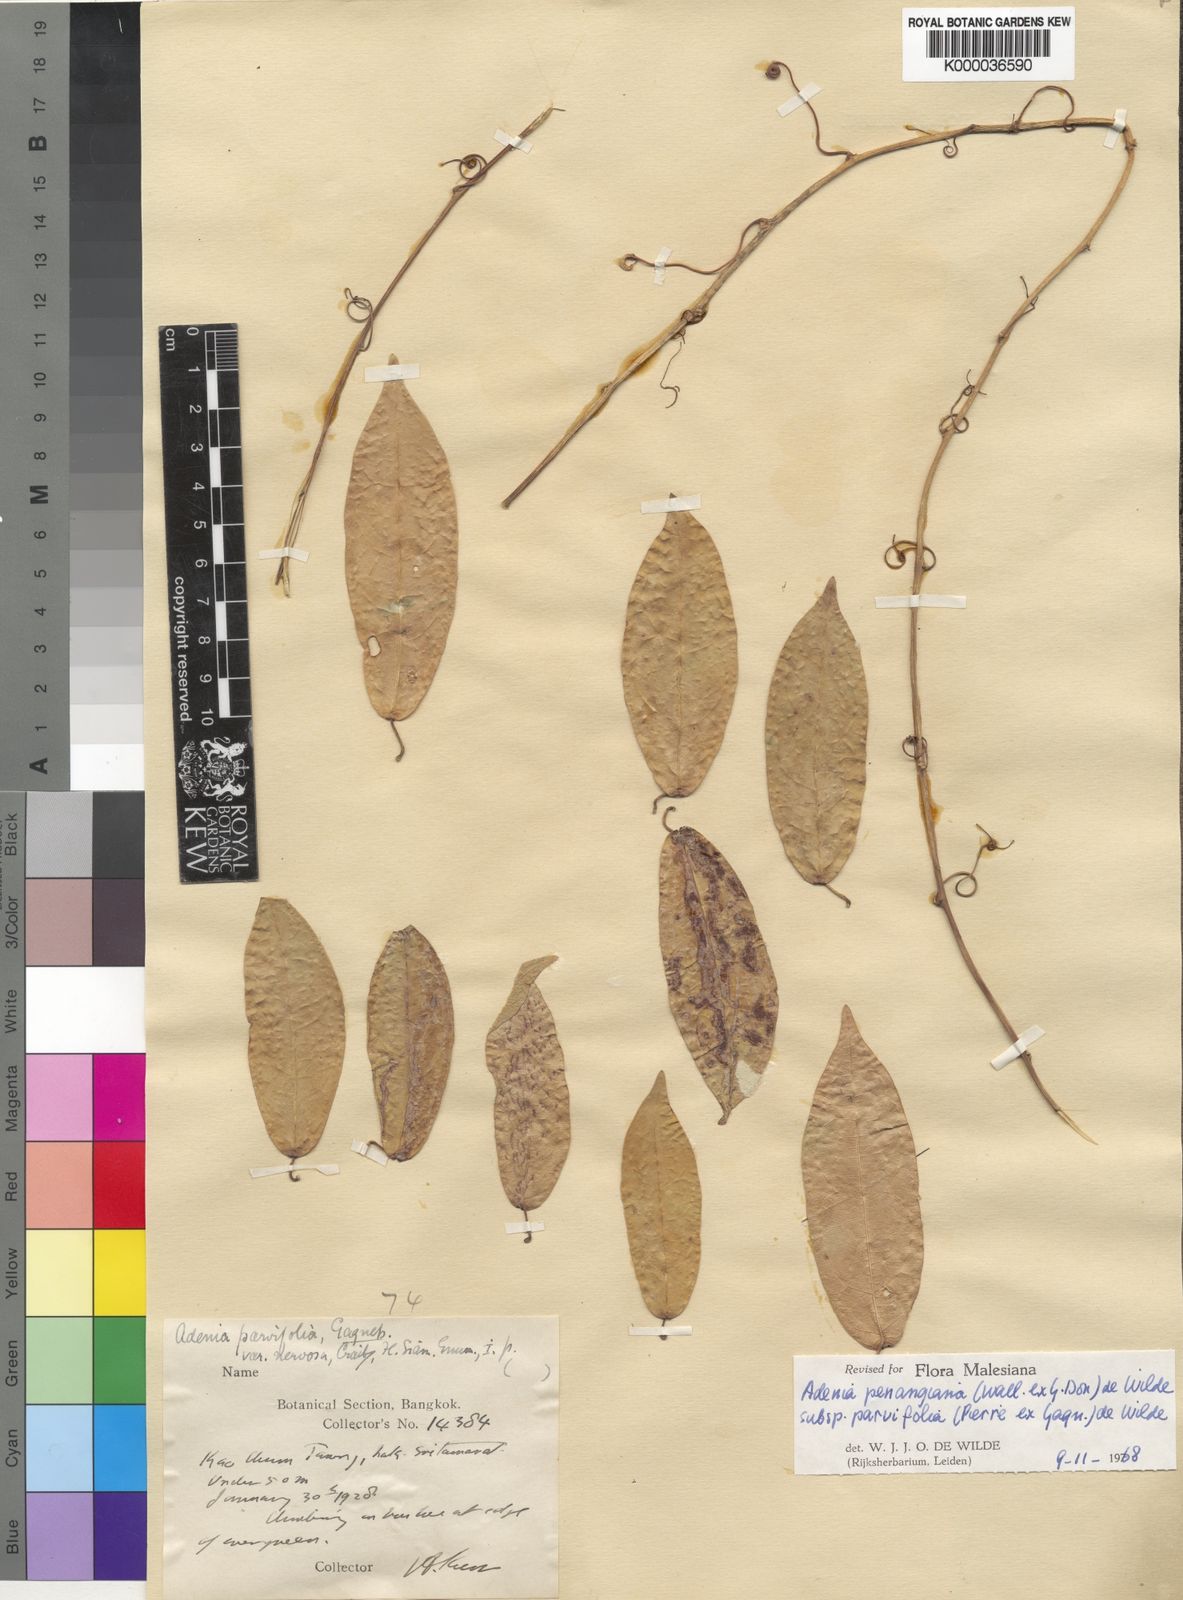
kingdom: Plantae
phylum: Tracheophyta
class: Magnoliopsida
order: Malpighiales
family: Passifloraceae
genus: Adenia
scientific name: Adenia penangiana
